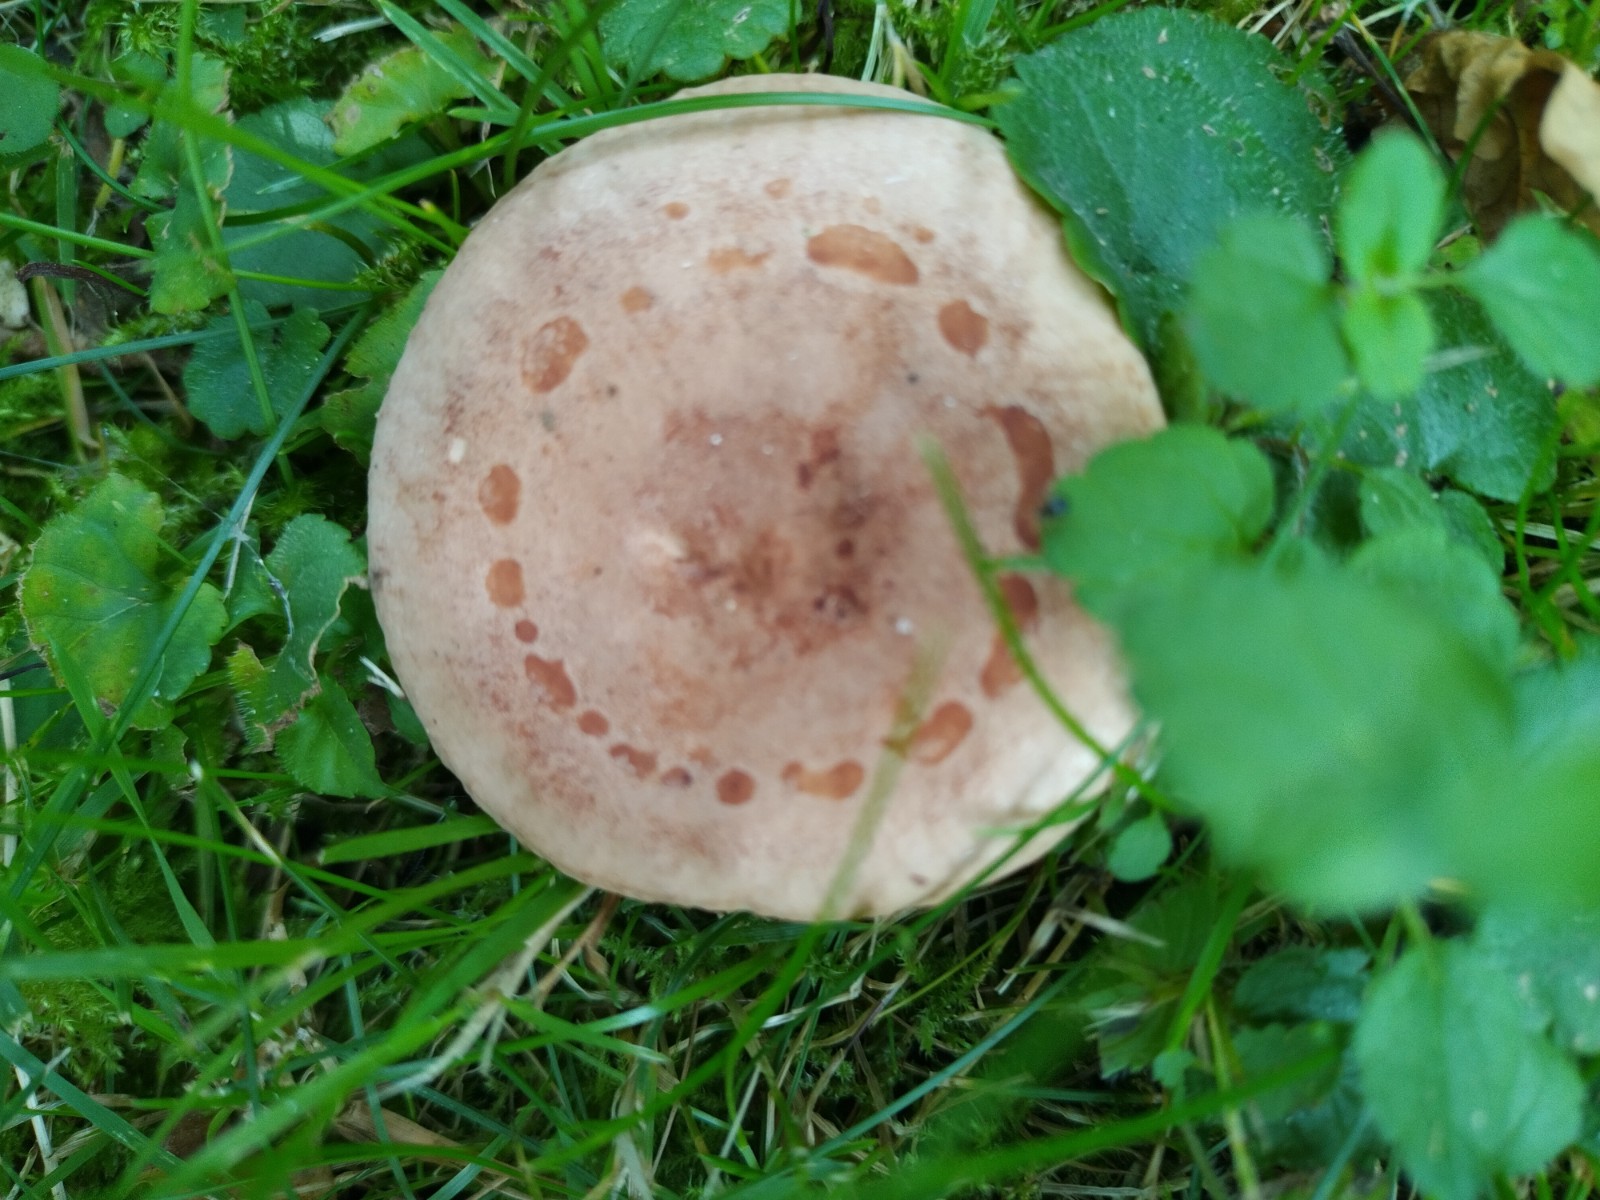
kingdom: Fungi
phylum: Basidiomycota
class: Agaricomycetes
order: Russulales
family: Russulaceae
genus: Lactarius
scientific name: Lactarius quietus
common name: ege-mælkehat
